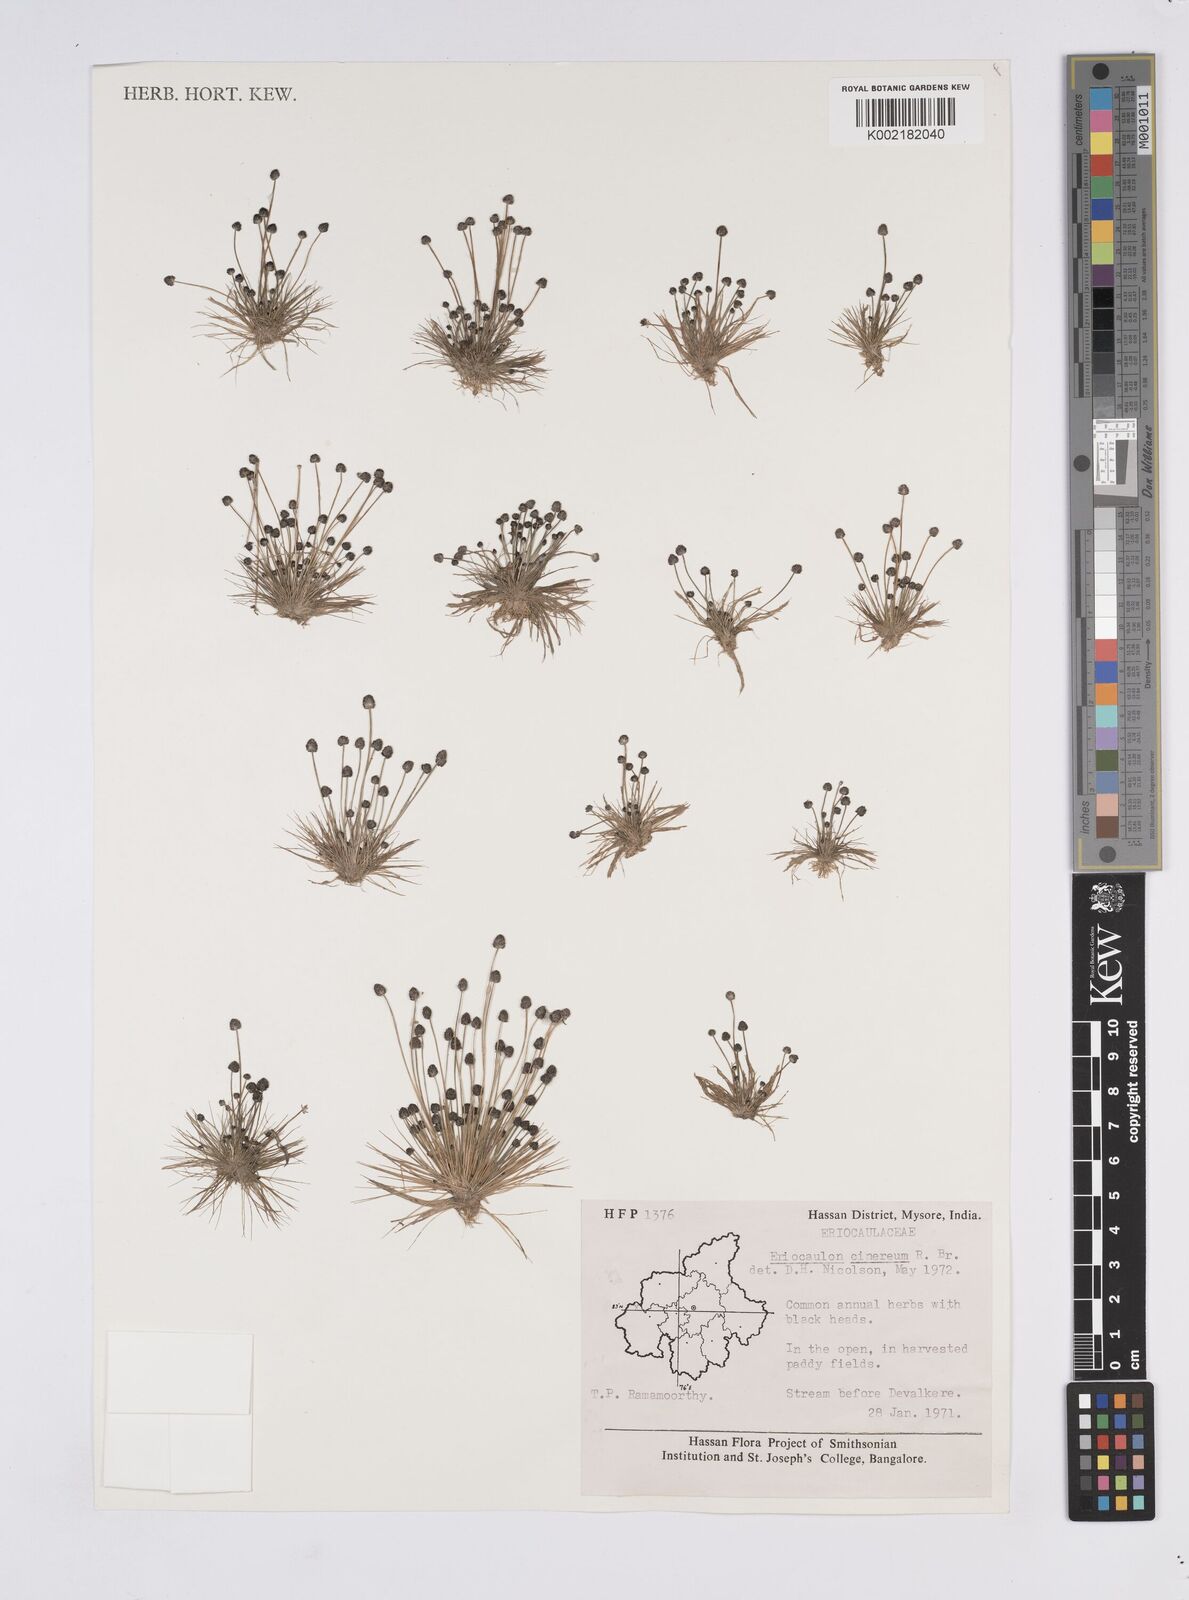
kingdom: Plantae
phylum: Tracheophyta
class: Liliopsida
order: Poales
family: Eriocaulaceae
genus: Eriocaulon
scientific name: Eriocaulon cinereum
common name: Ashy pipewort
